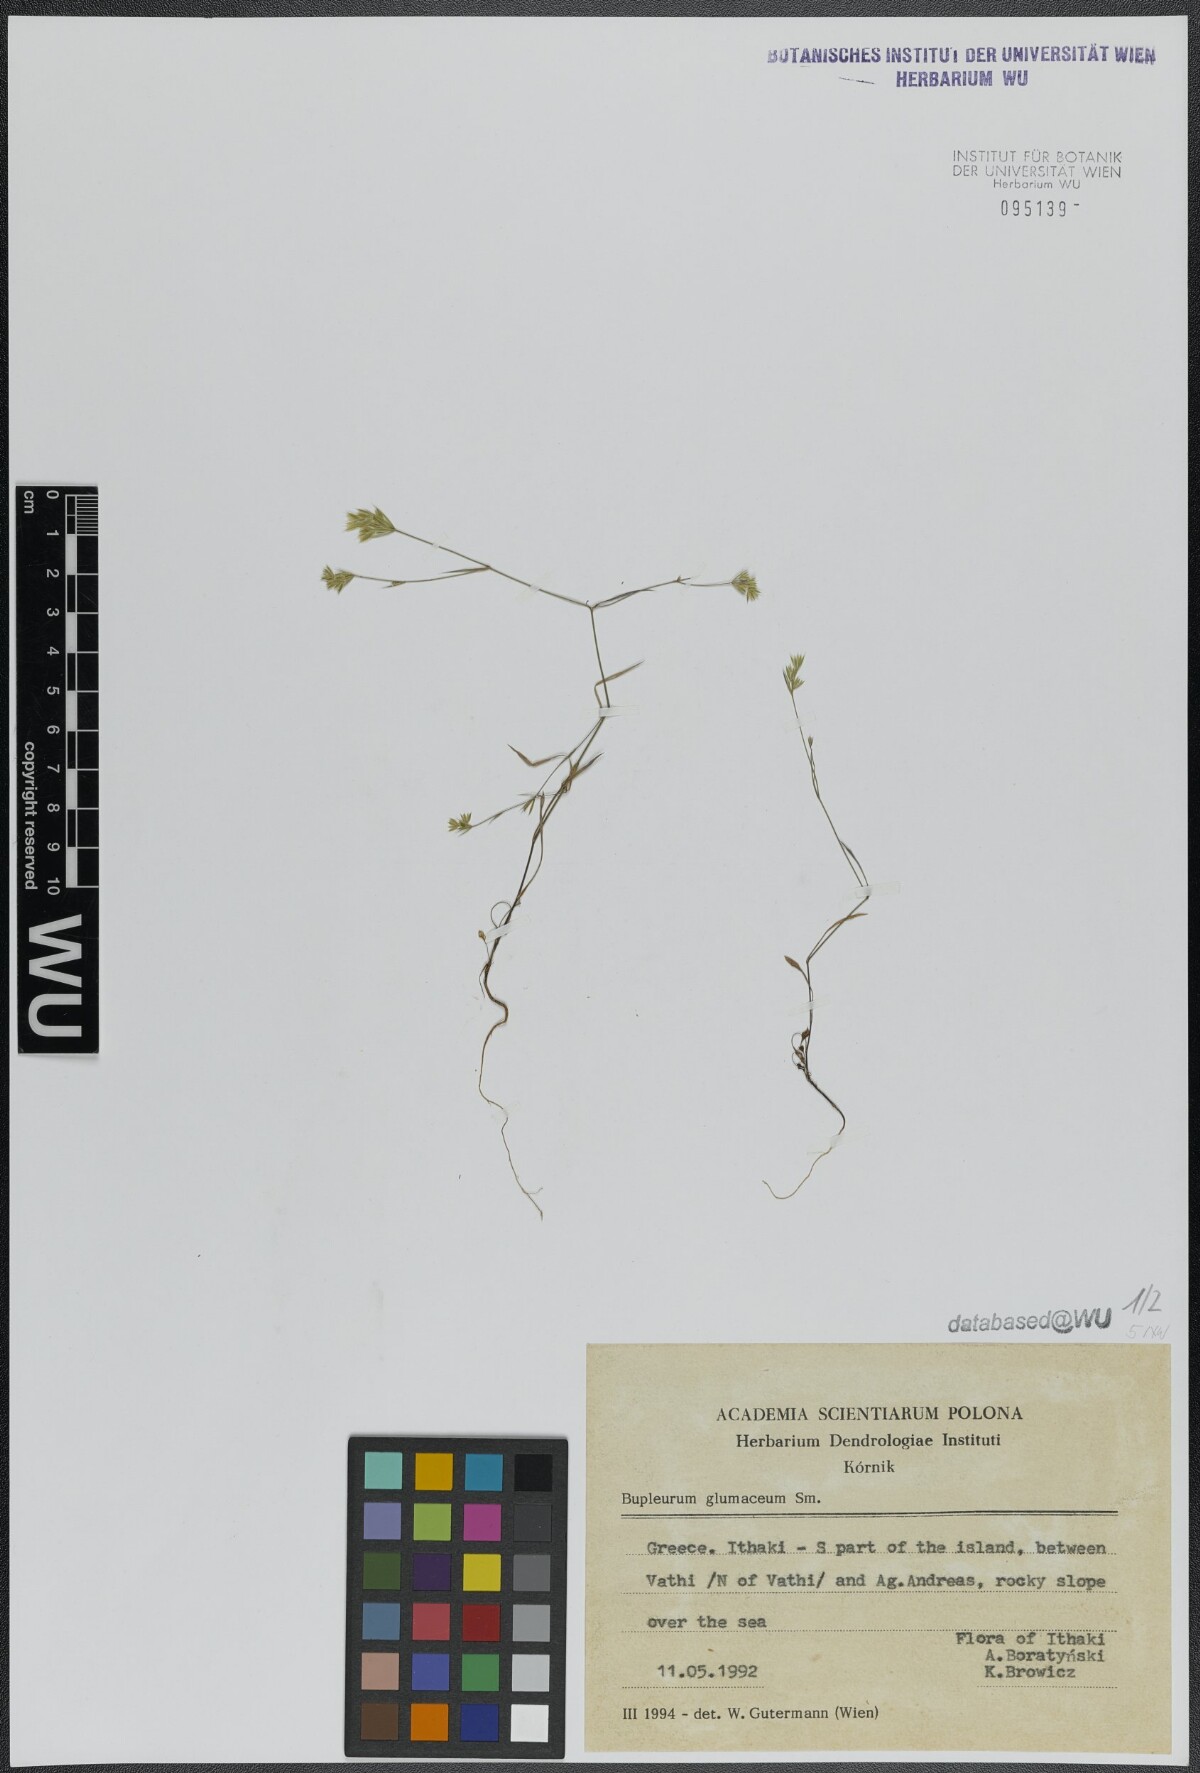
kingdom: Plantae
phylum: Tracheophyta
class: Magnoliopsida
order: Apiales
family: Apiaceae
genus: Bupleurum
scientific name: Bupleurum glumaceum
